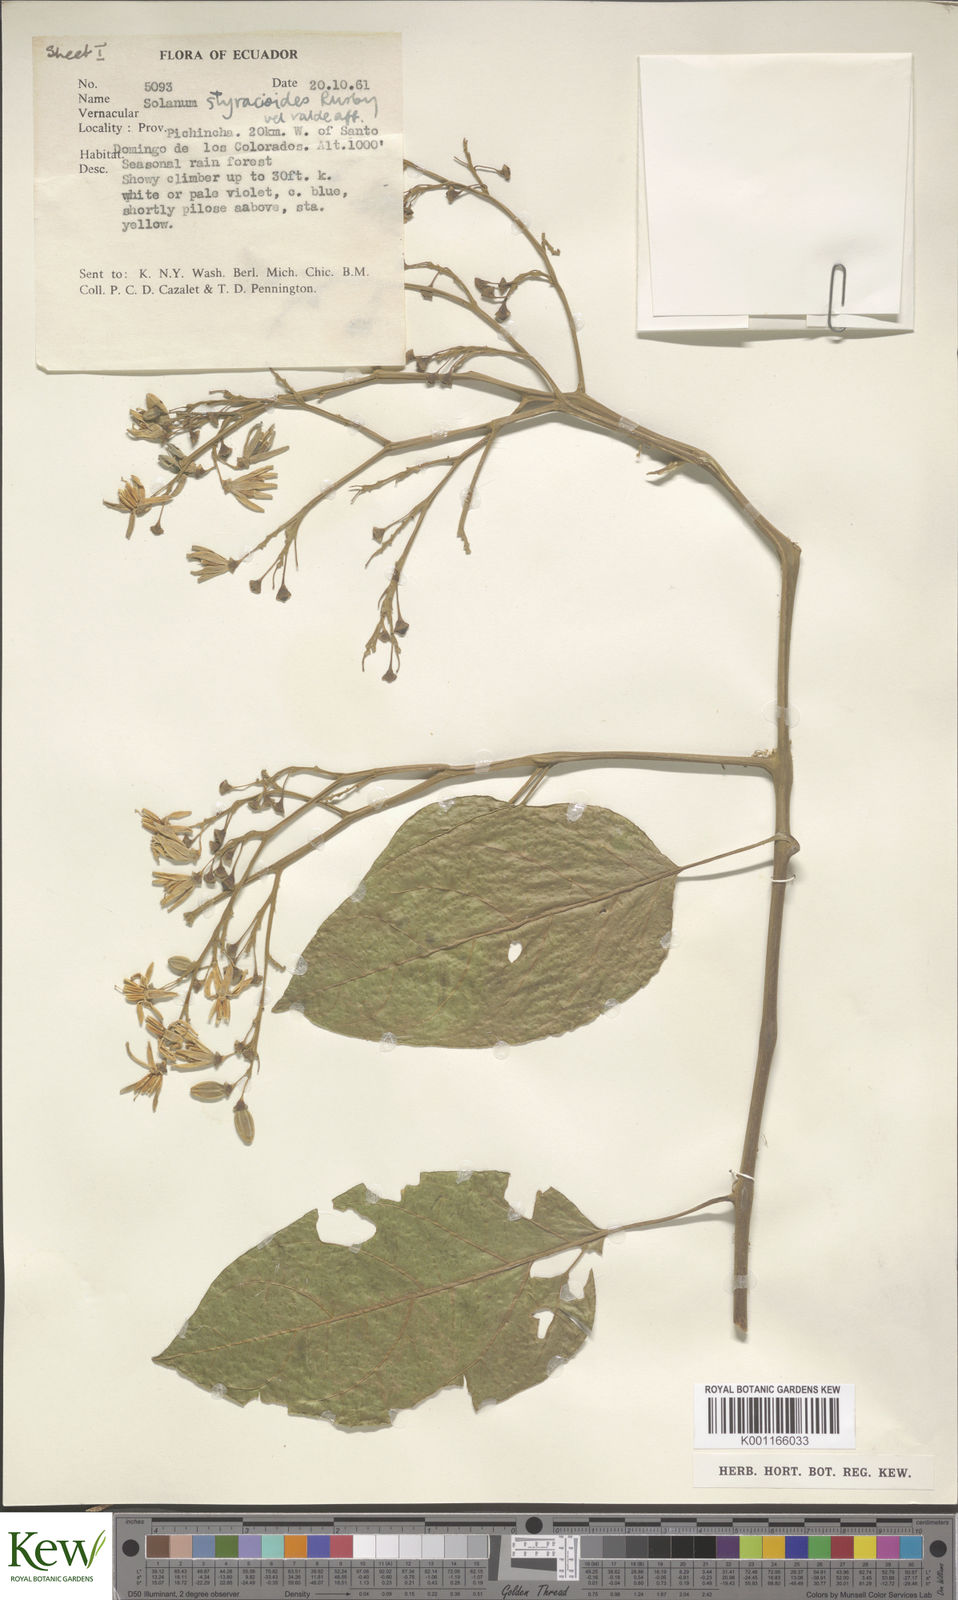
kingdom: Plantae
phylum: Tracheophyta
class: Magnoliopsida
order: Solanales
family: Solanaceae
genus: Solanum
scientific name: Solanum uncinellum
